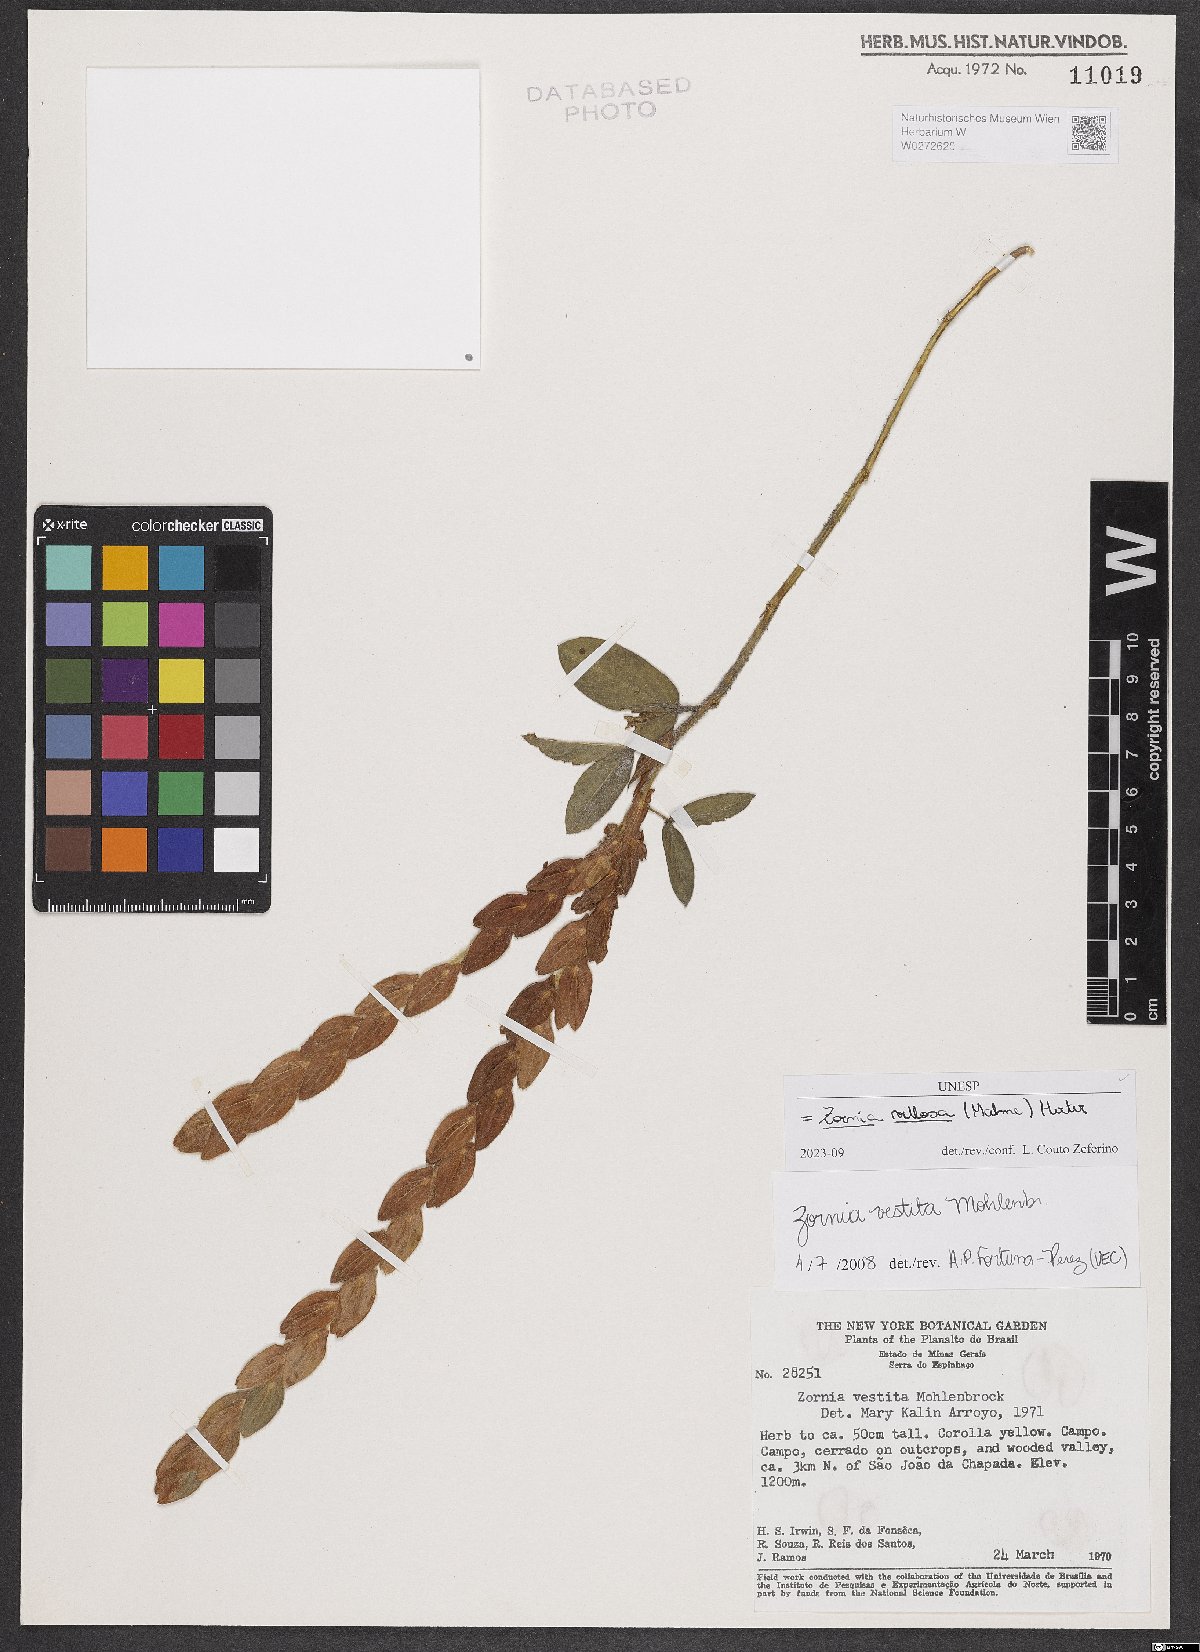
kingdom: Plantae
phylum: Tracheophyta
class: Magnoliopsida
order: Fabales
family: Fabaceae
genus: Zornia
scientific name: Zornia villosa
